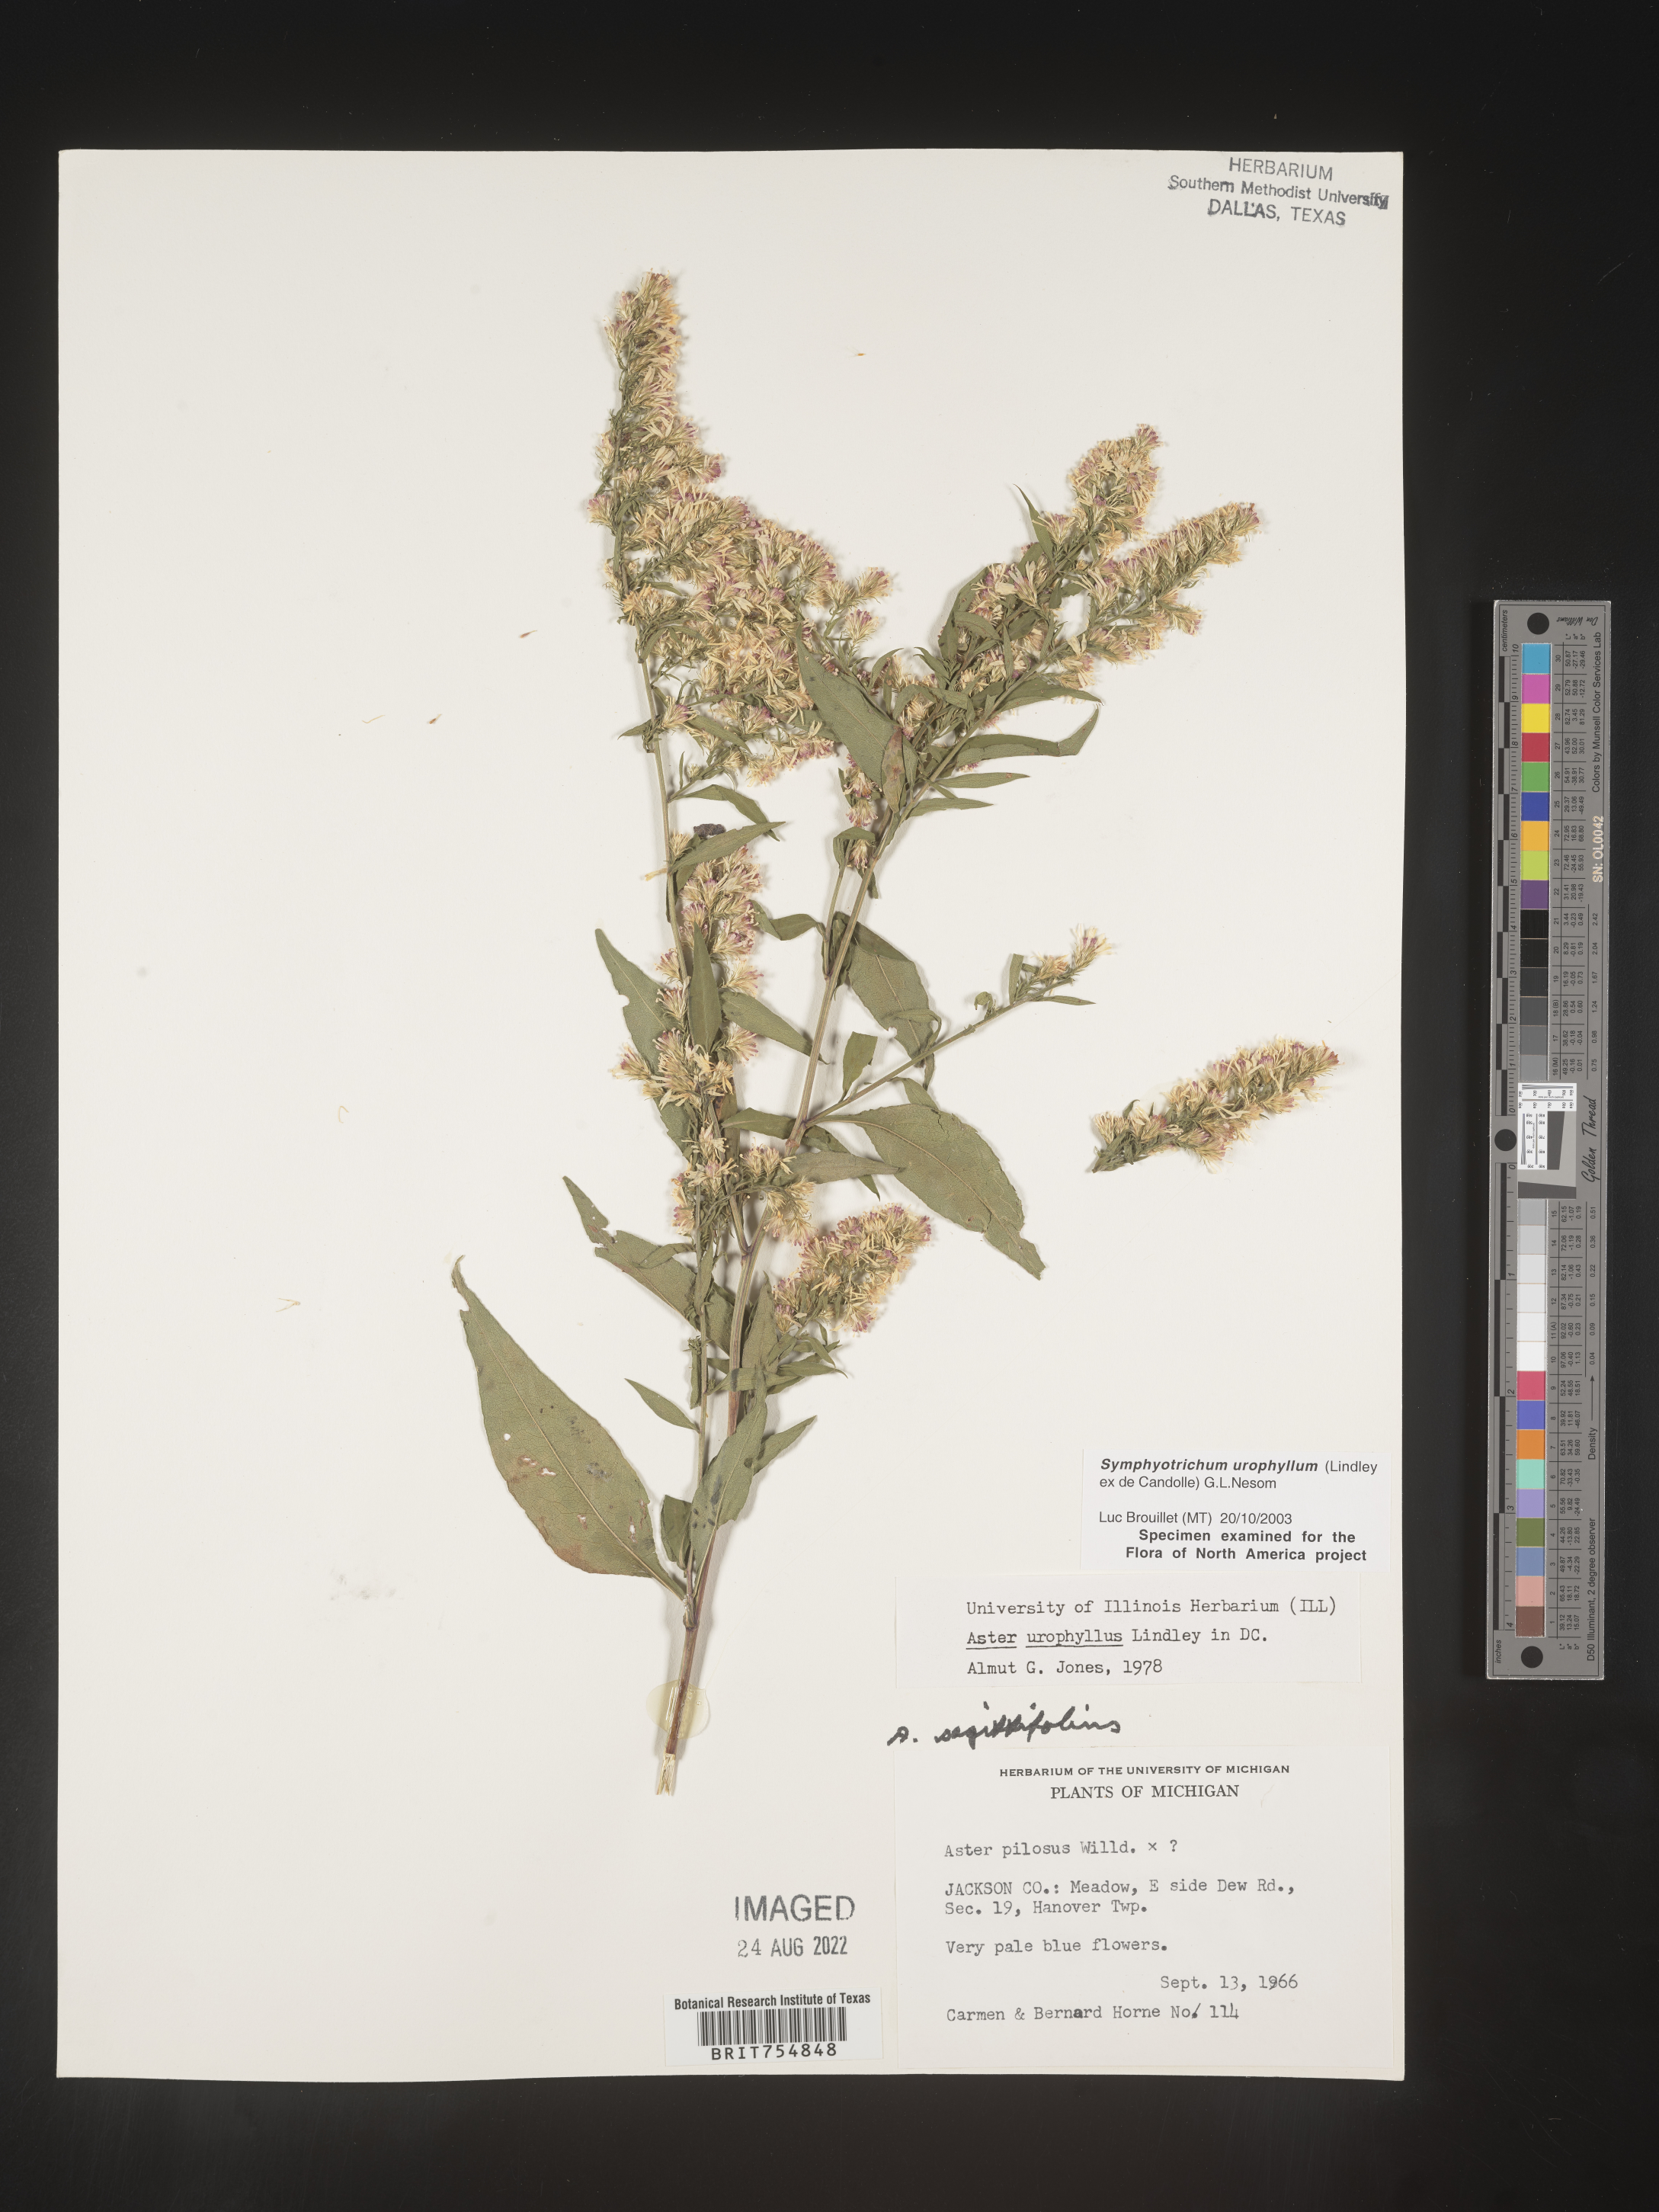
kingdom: Plantae
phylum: Tracheophyta
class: Magnoliopsida
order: Asterales
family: Asteraceae
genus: Symphyotrichum
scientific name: Symphyotrichum urophyllum
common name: Arrow-leaved aster
